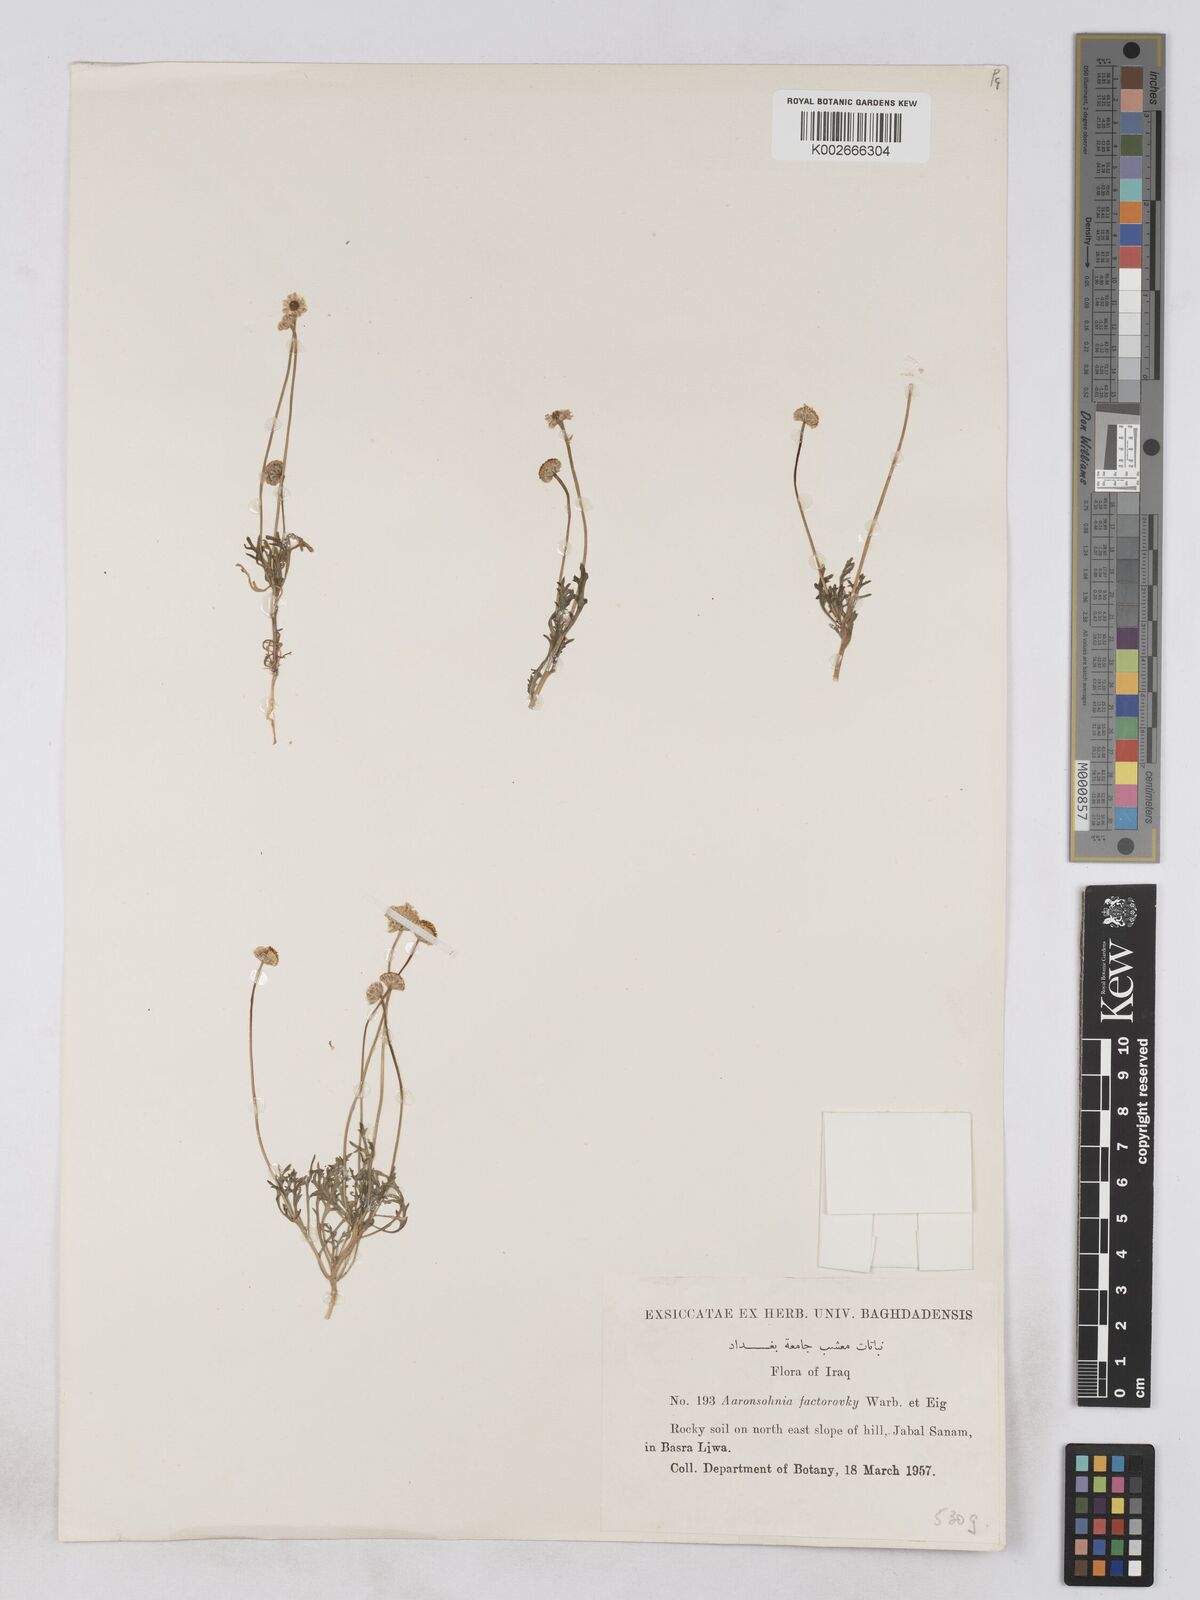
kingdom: Plantae
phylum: Tracheophyta
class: Magnoliopsida
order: Asterales
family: Asteraceae
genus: Otoglyphis
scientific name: Otoglyphis factorovskyi
